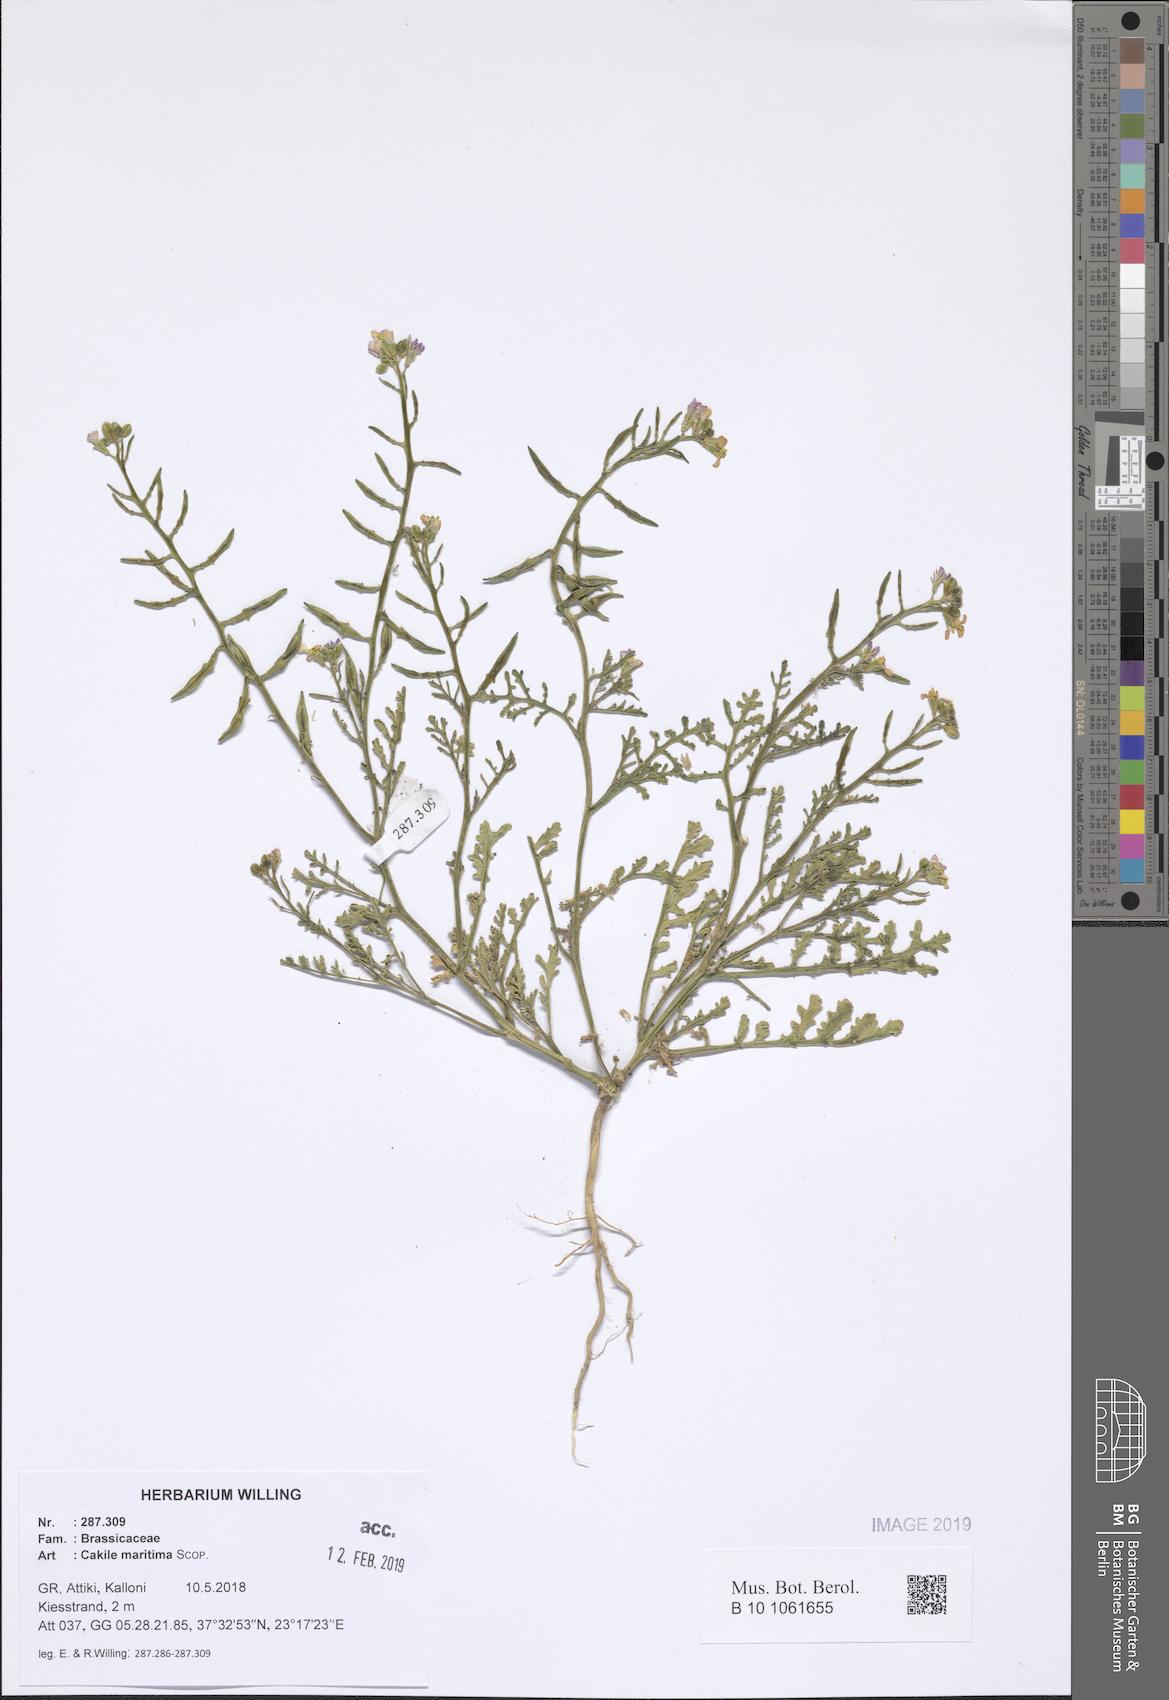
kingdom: Plantae
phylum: Tracheophyta
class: Magnoliopsida
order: Brassicales
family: Brassicaceae
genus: Cakile
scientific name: Cakile maritima
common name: Sea rocket
